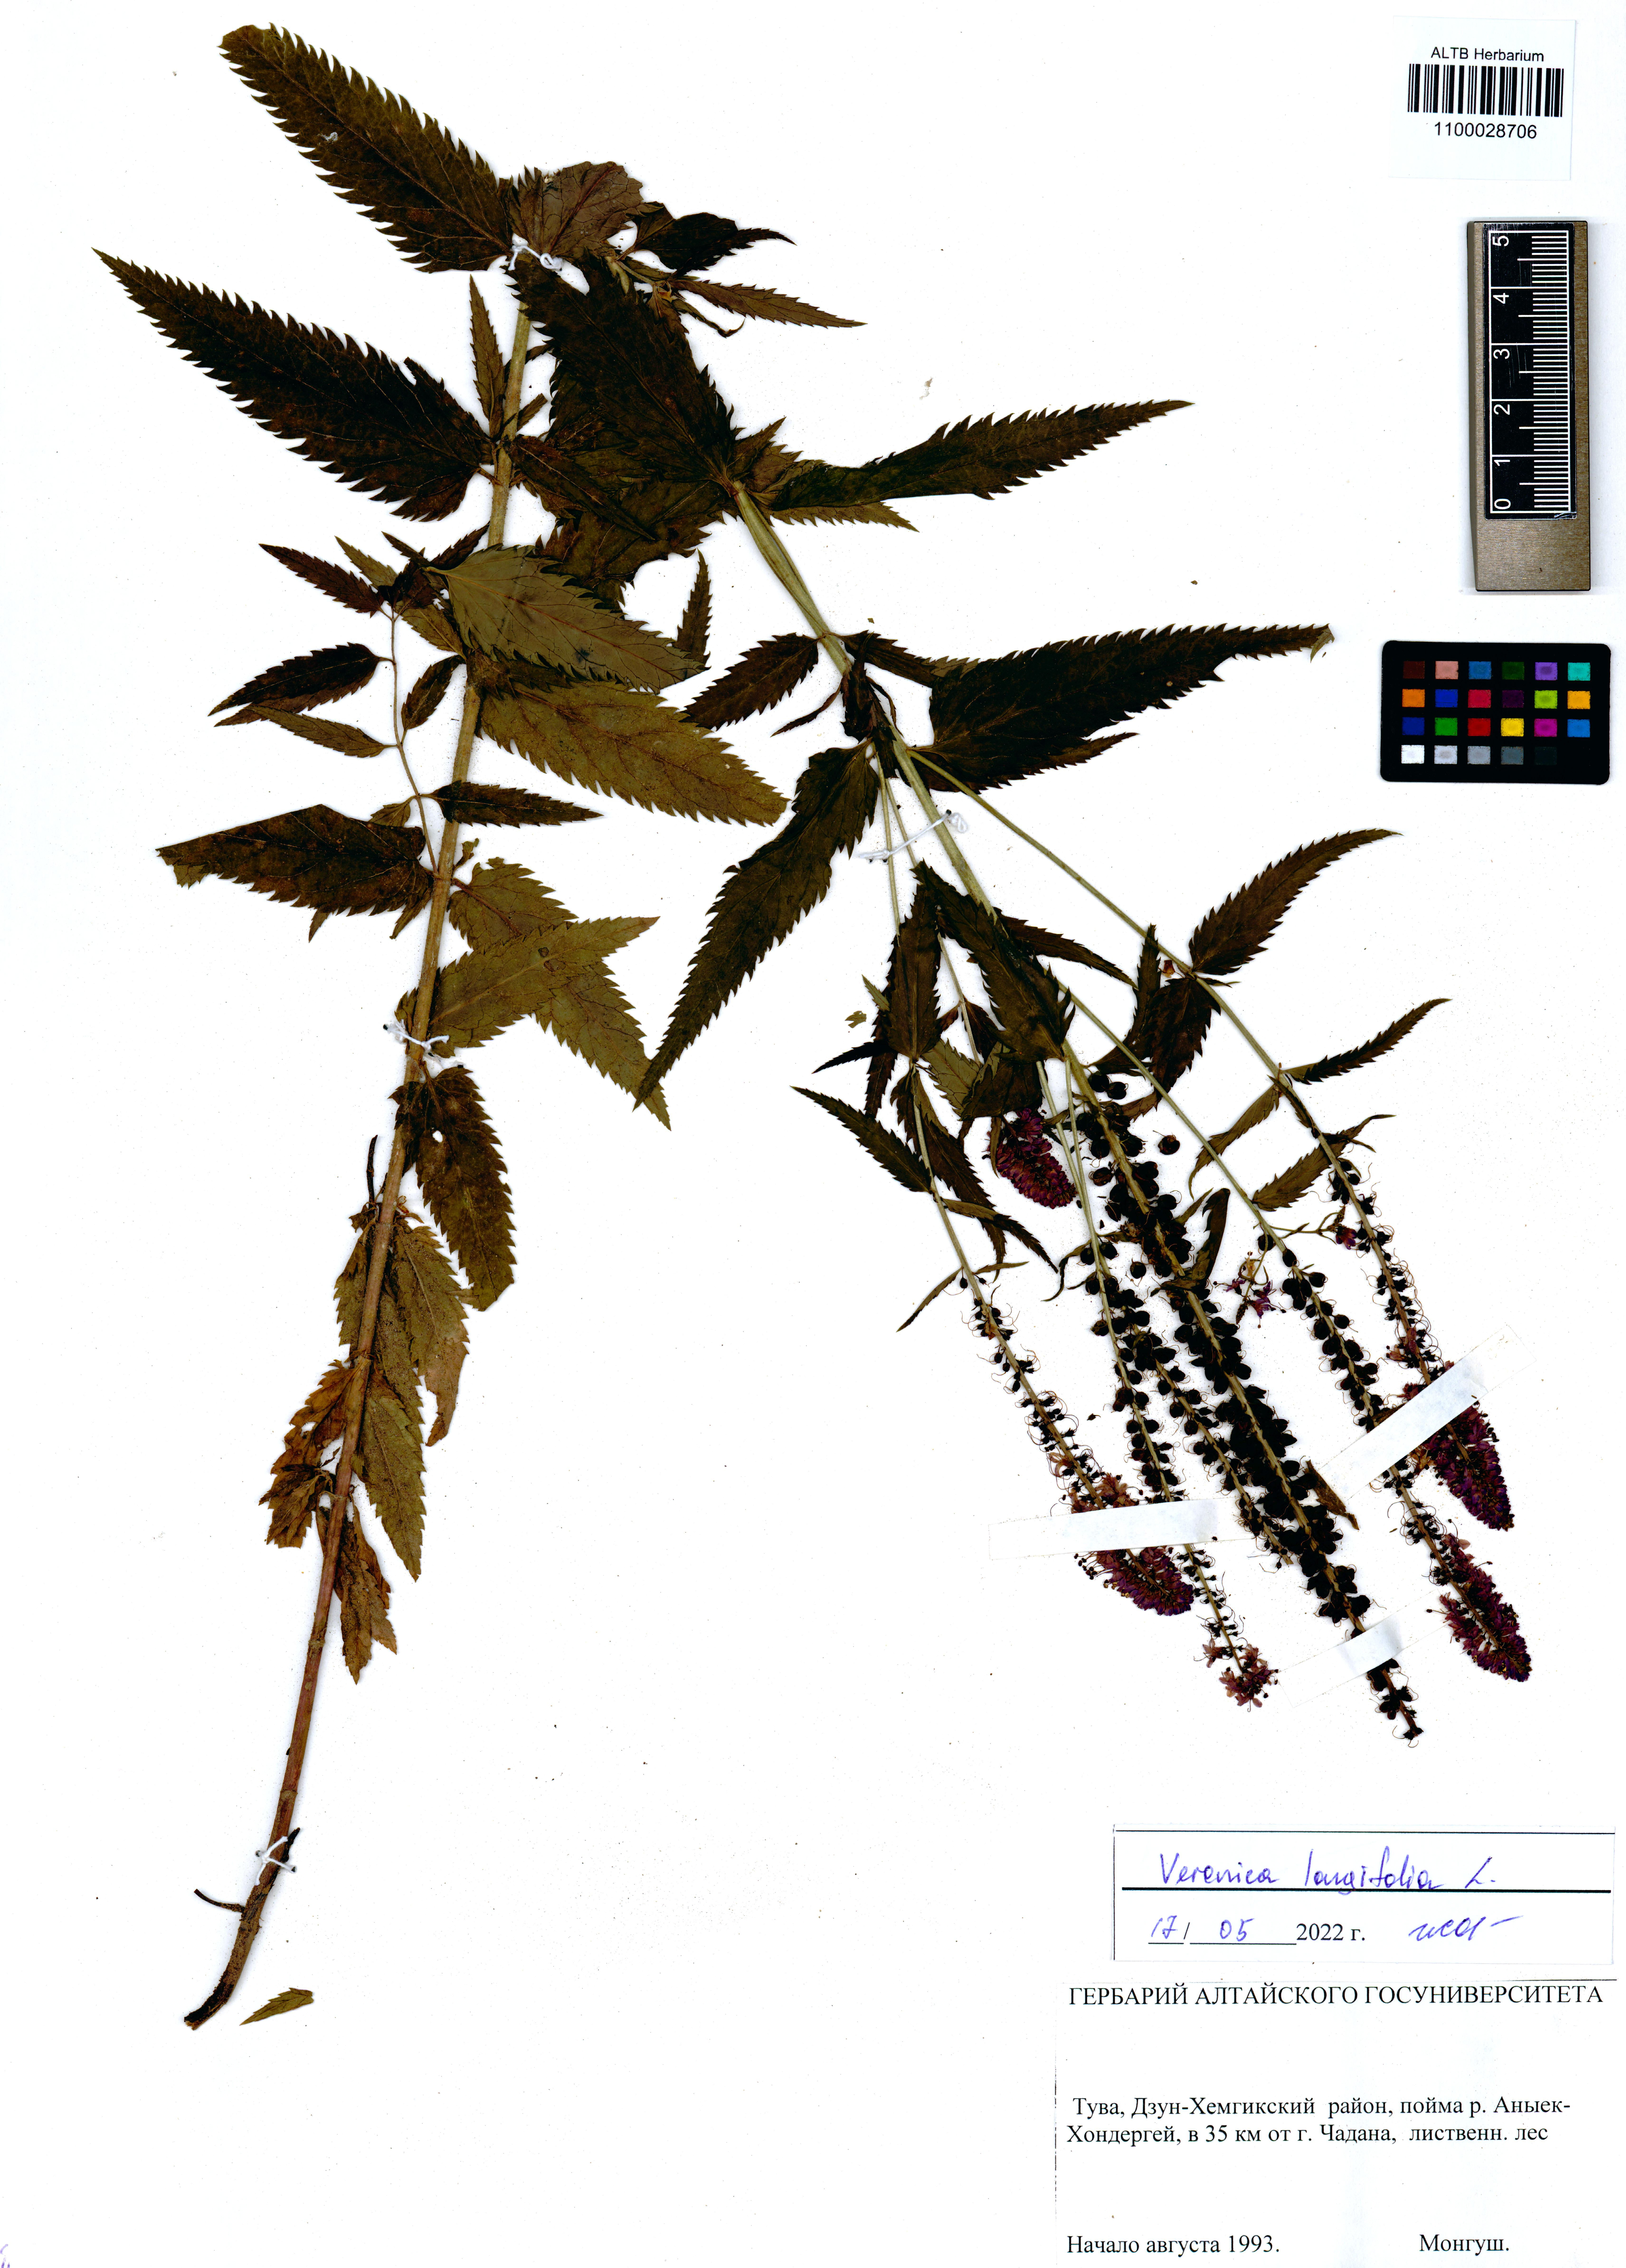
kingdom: Plantae
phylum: Tracheophyta
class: Magnoliopsida
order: Lamiales
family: Plantaginaceae
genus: Veronica
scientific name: Veronica longifolia
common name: Garden speedwell
